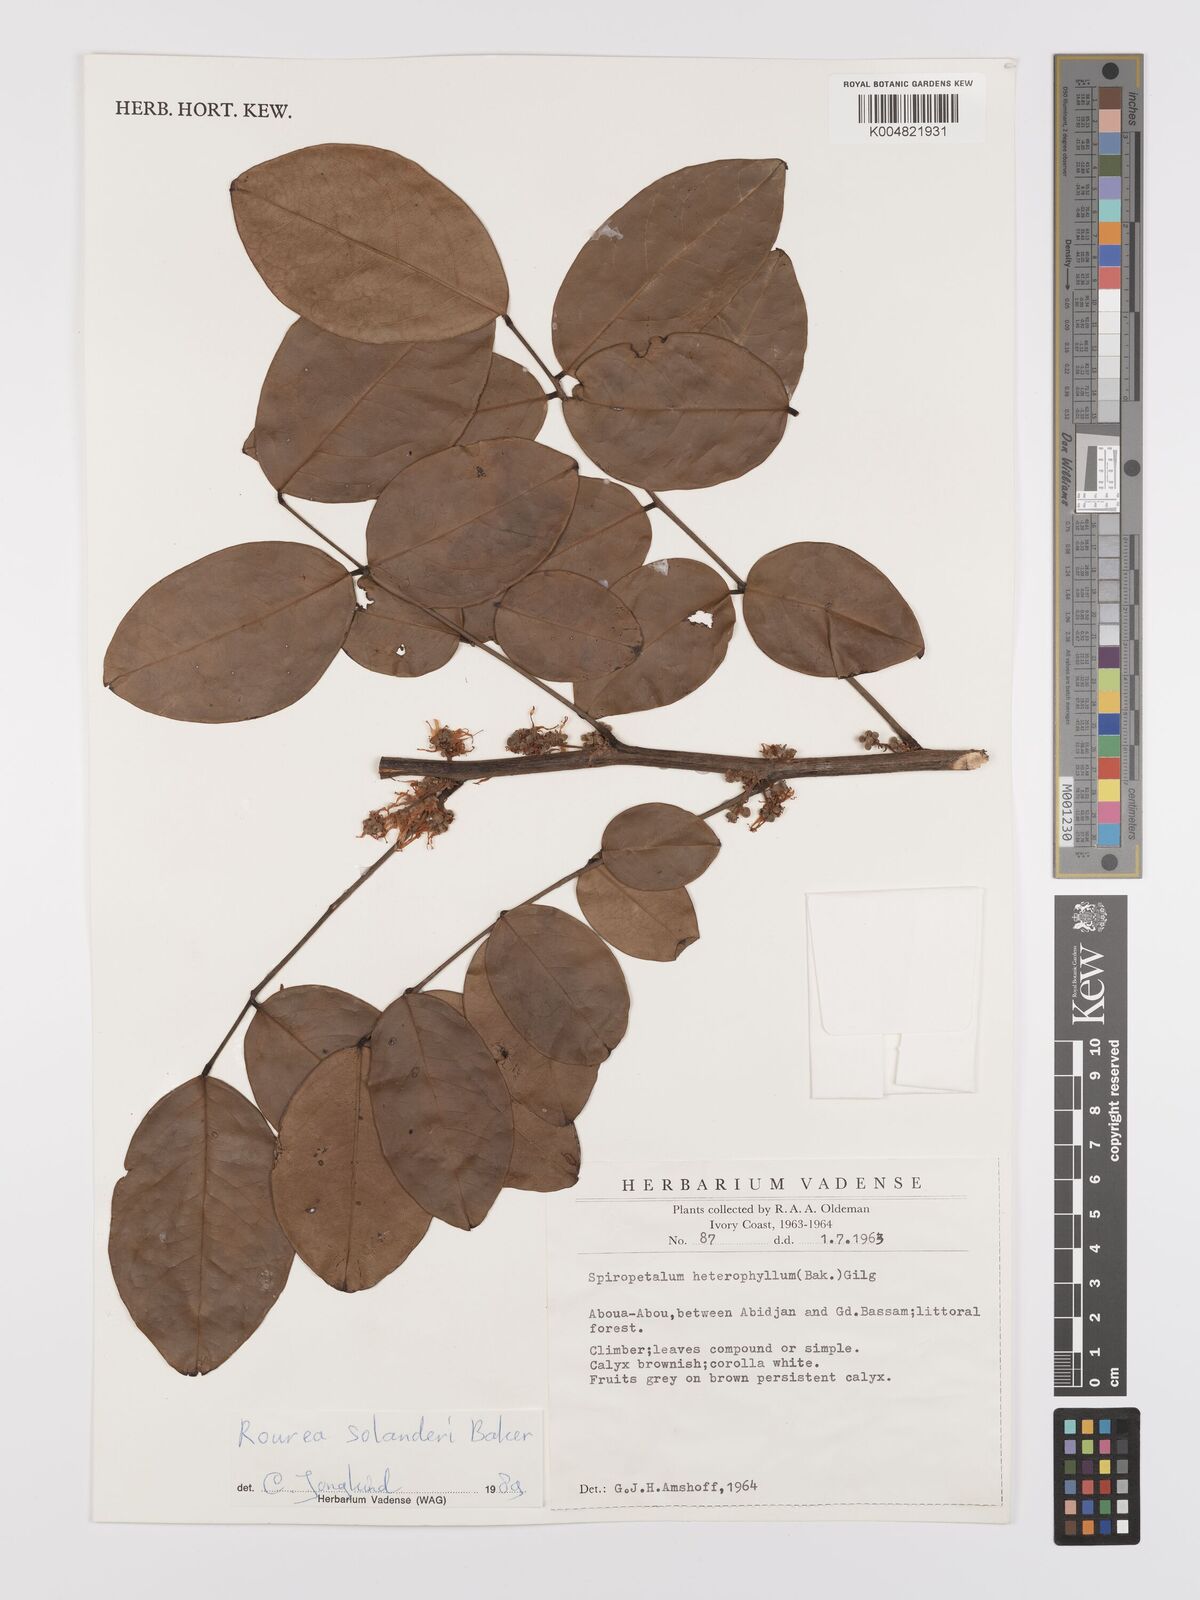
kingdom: Plantae
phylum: Tracheophyta
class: Magnoliopsida
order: Oxalidales
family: Connaraceae
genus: Rourea
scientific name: Rourea solanderi
